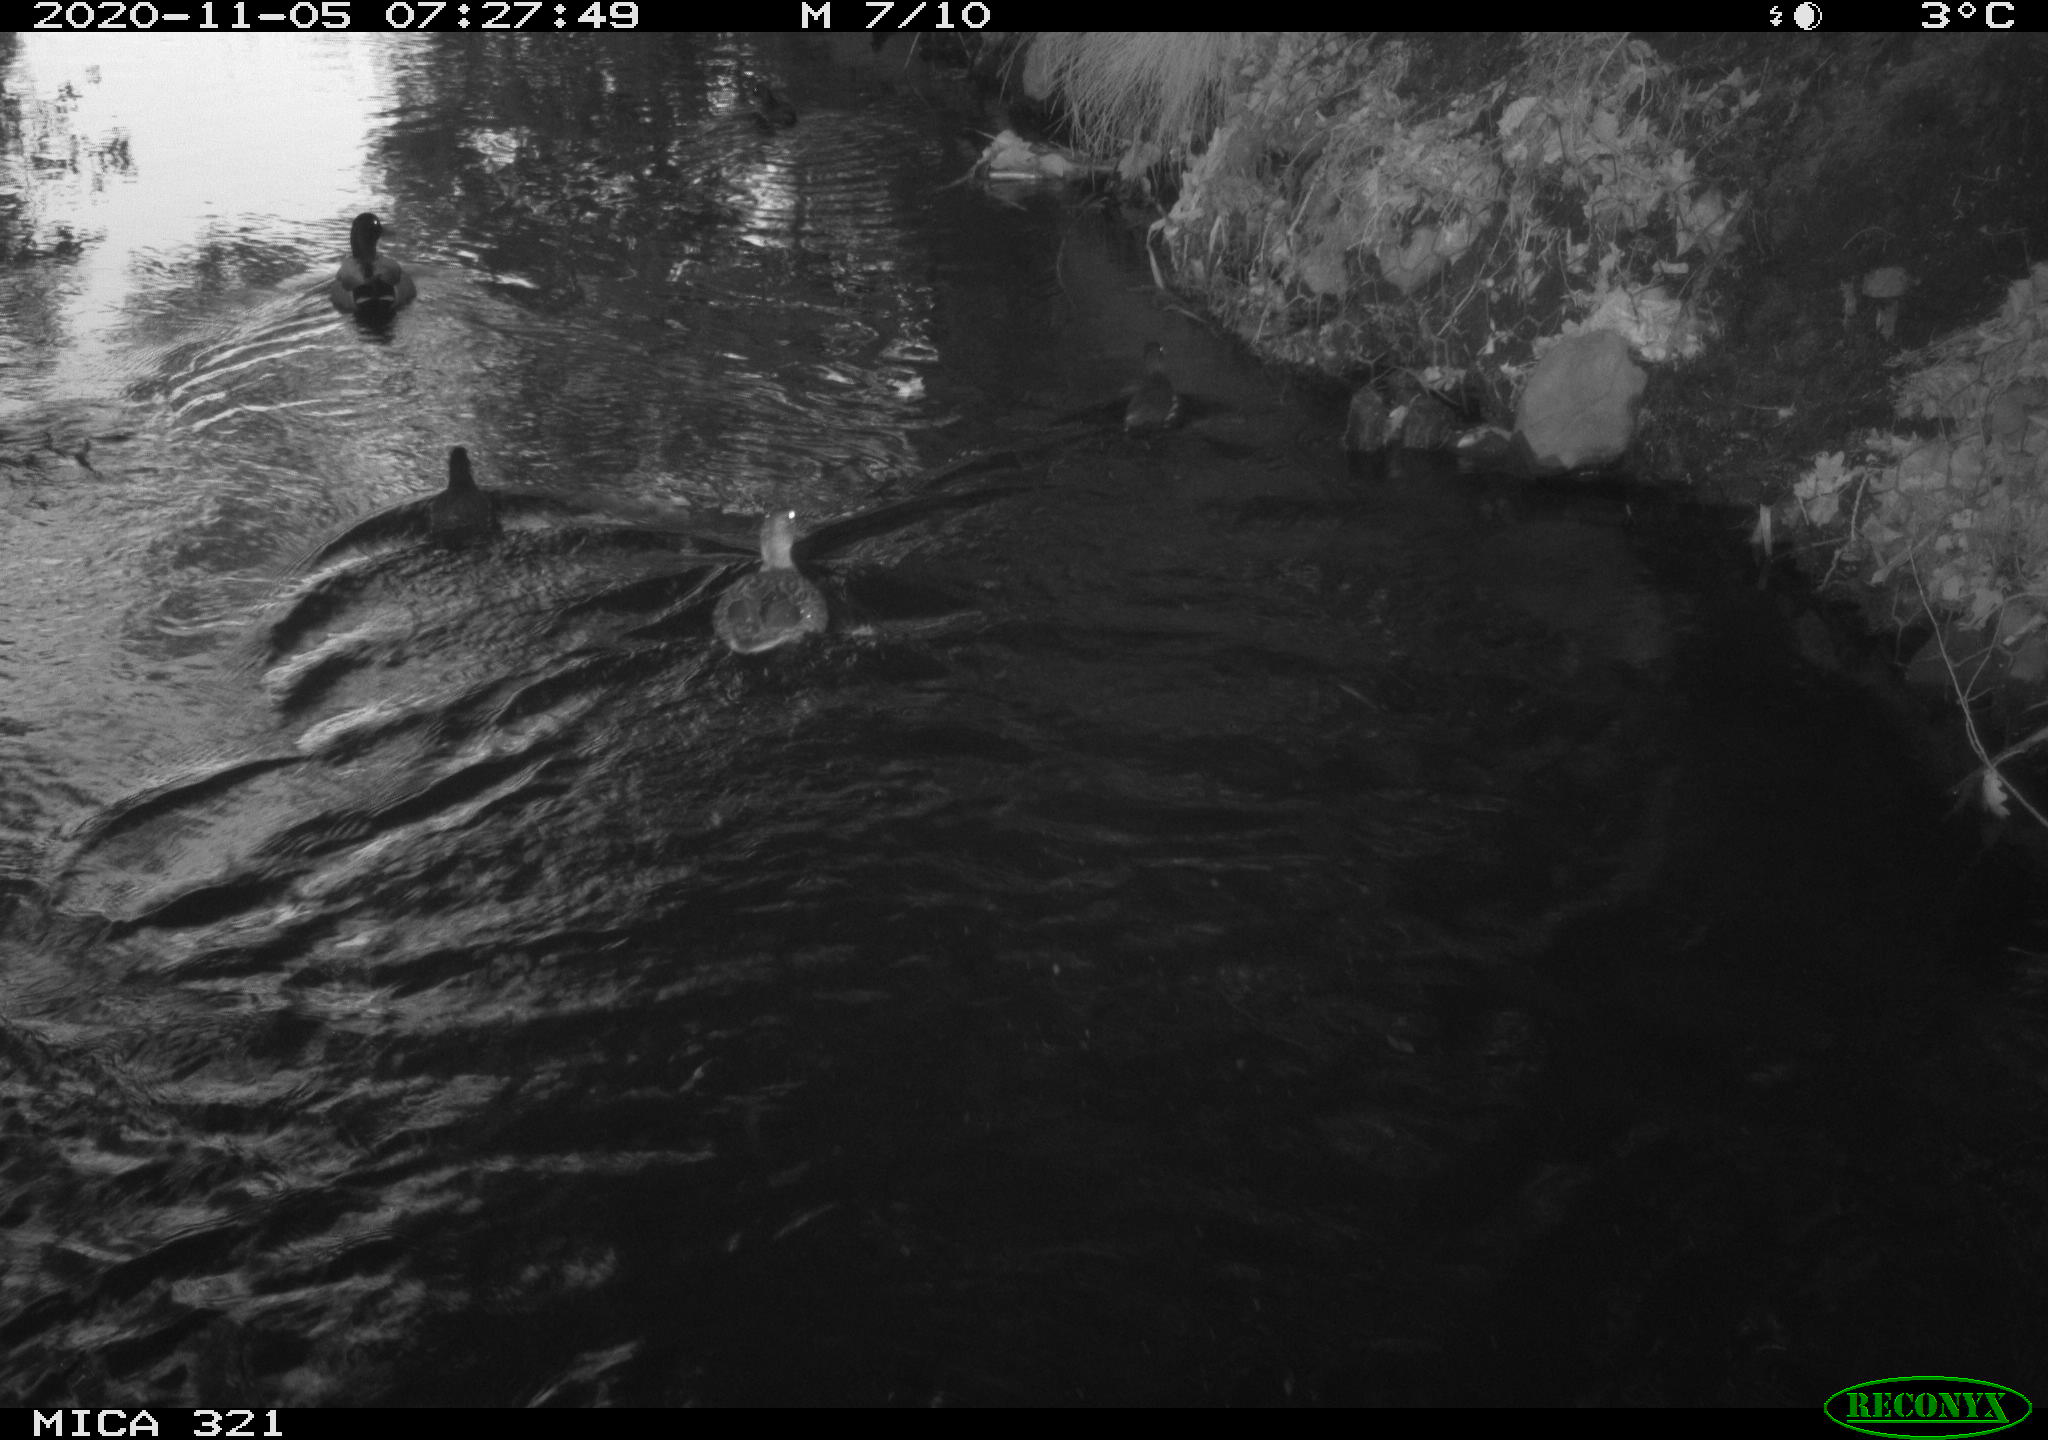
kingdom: Animalia
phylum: Chordata
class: Aves
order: Anseriformes
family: Anatidae
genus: Anas
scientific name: Anas platyrhynchos
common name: Mallard
